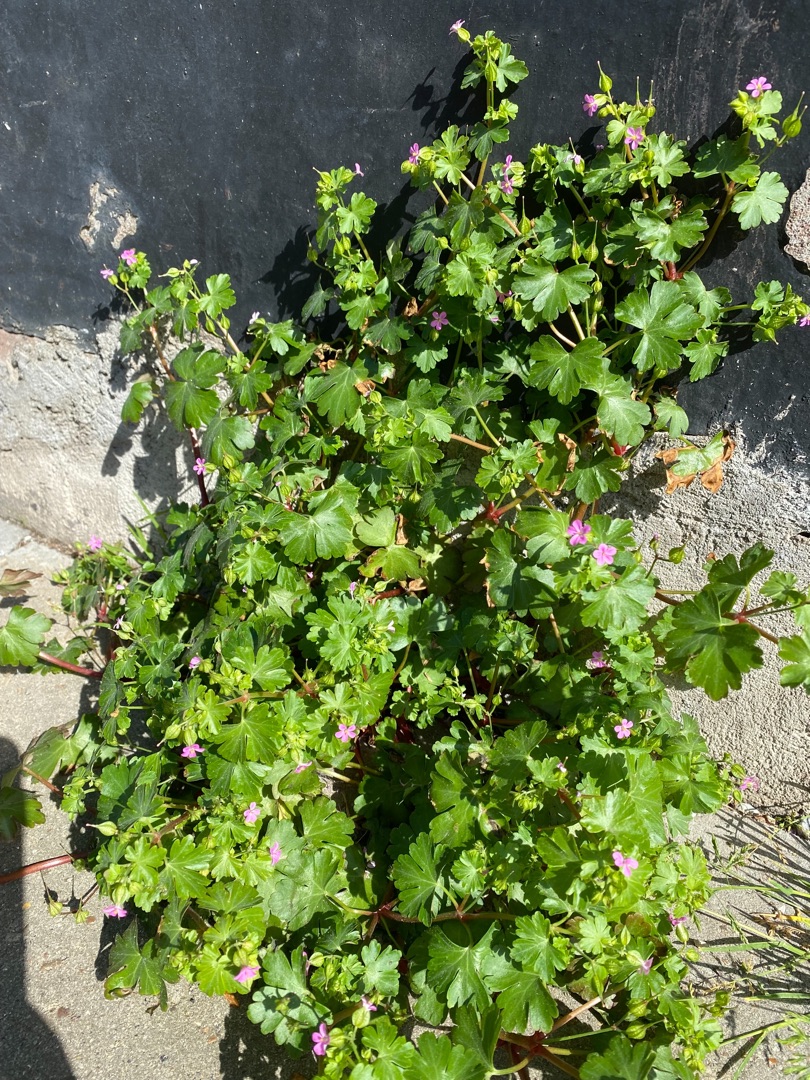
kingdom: Plantae
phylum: Tracheophyta
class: Magnoliopsida
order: Geraniales
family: Geraniaceae
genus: Geranium
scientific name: Geranium lucidum
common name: Skinnende storkenæb
